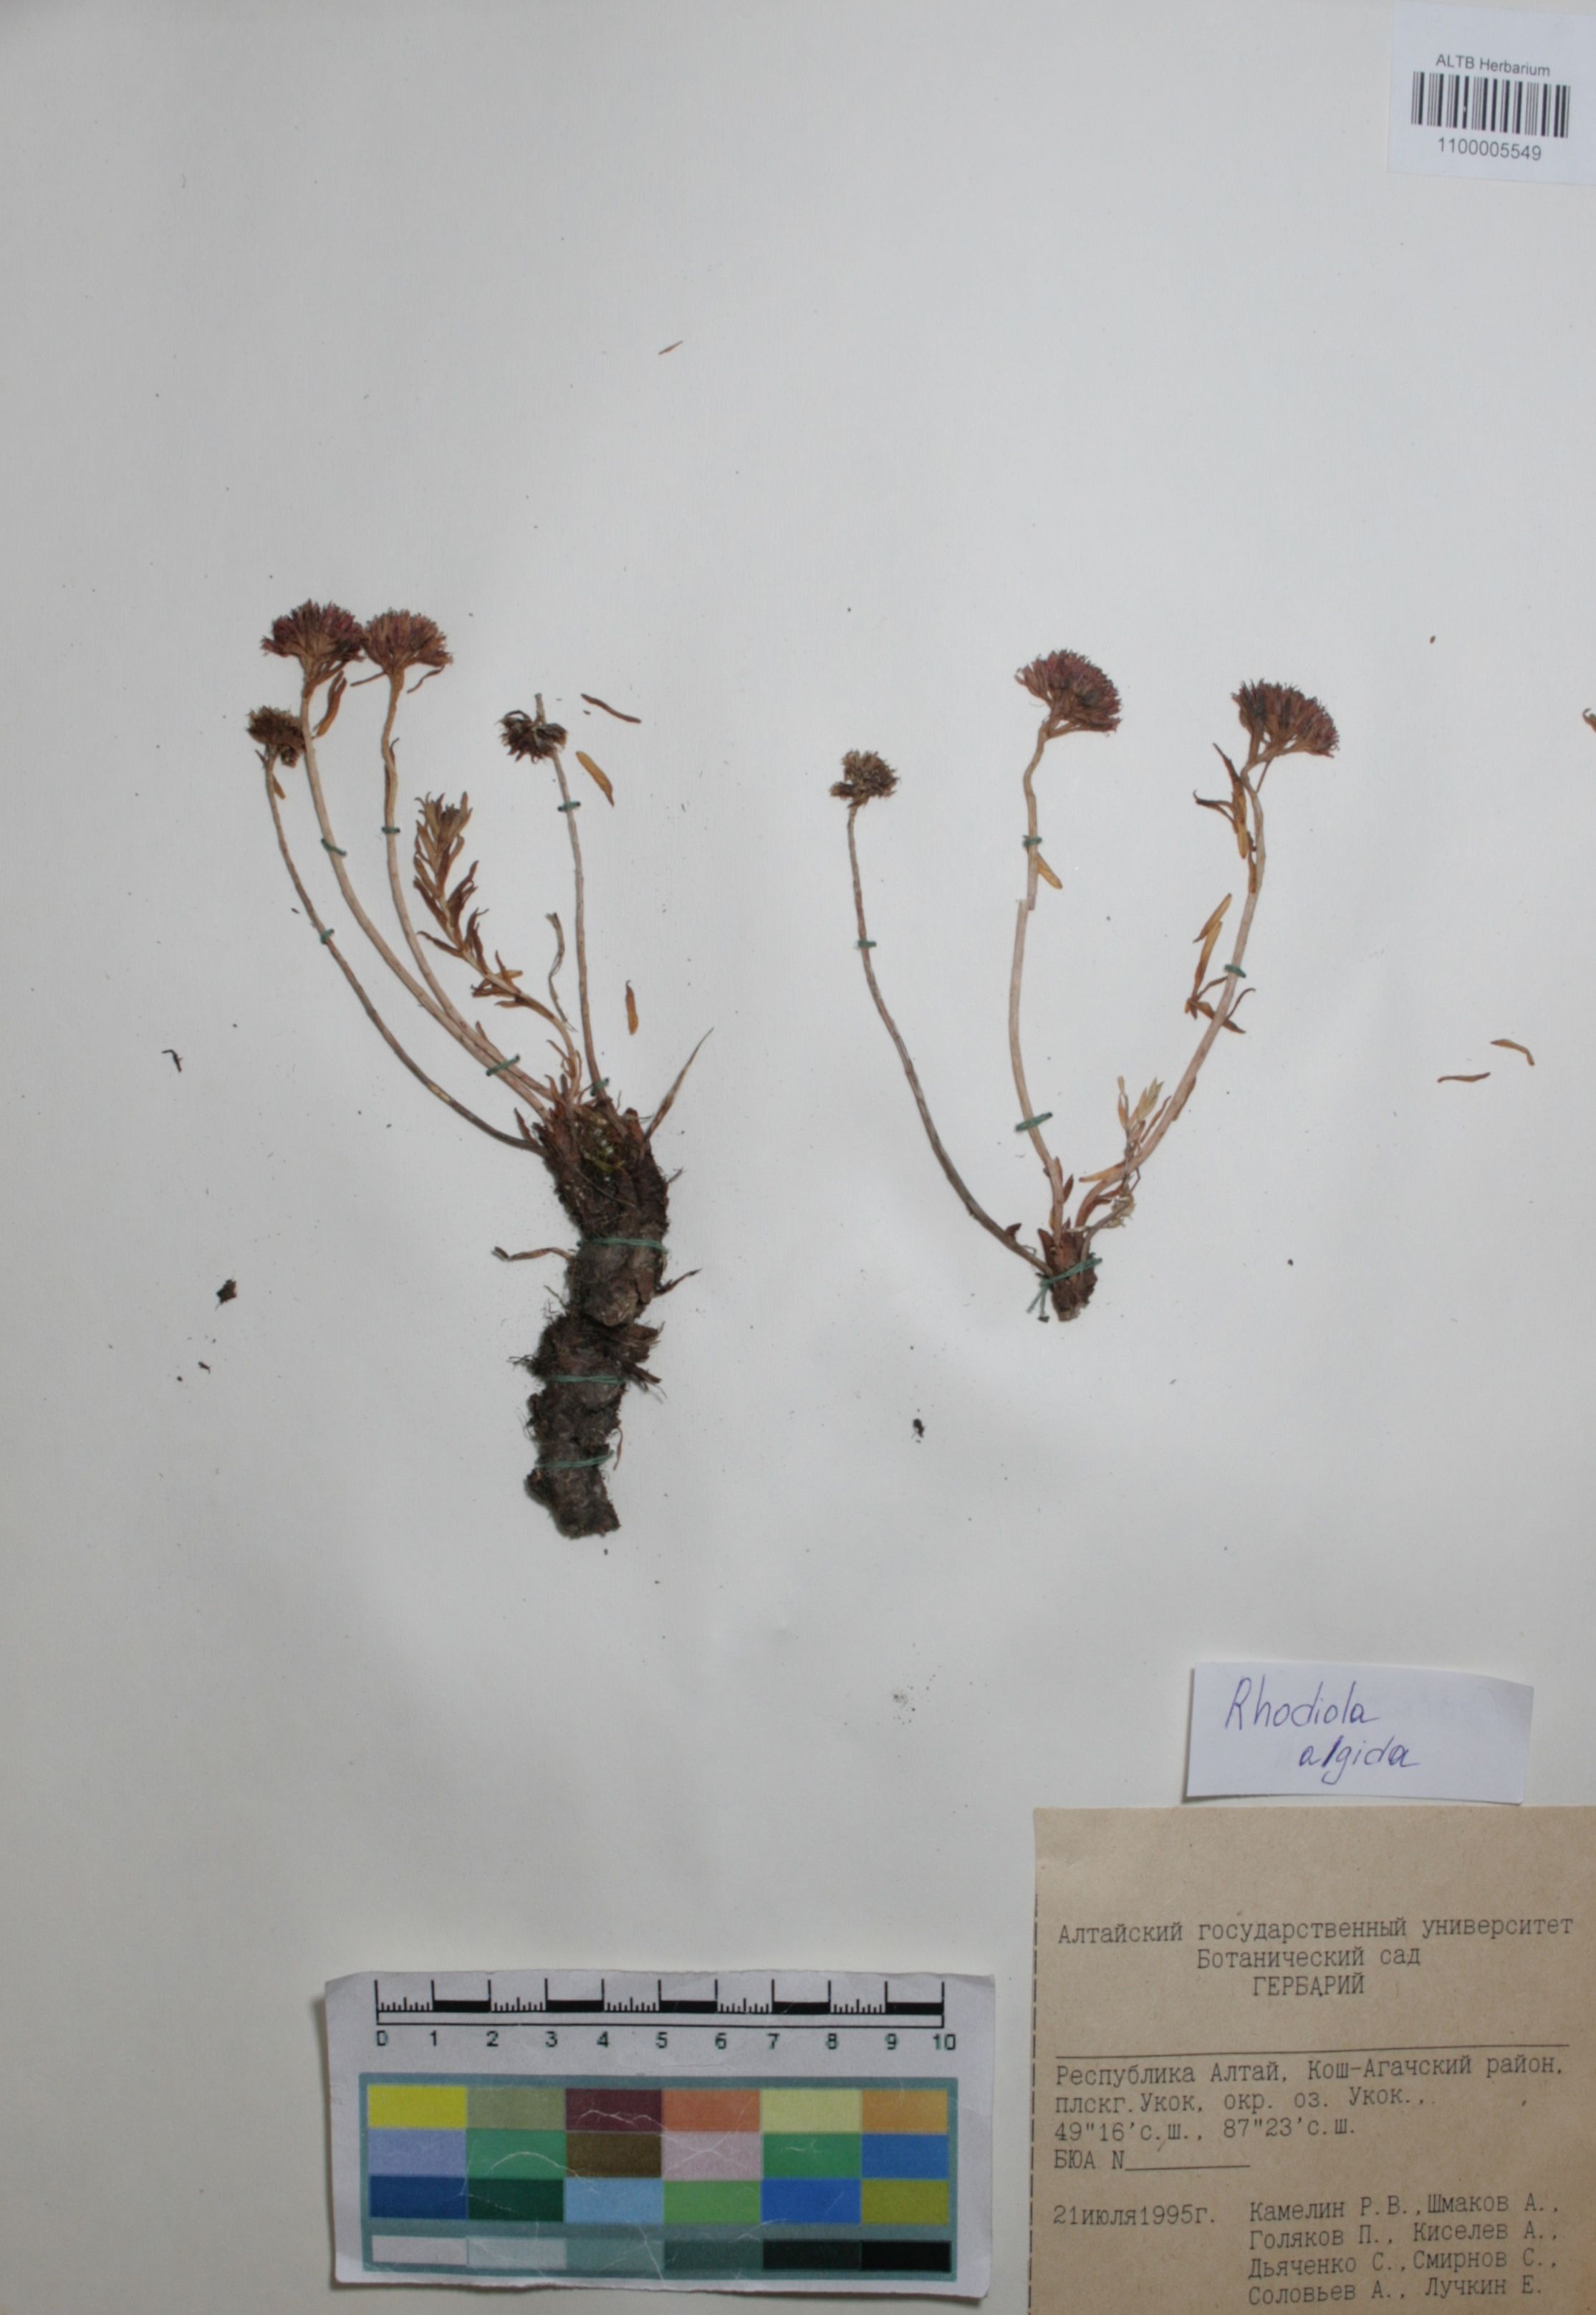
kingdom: Plantae
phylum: Tracheophyta
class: Magnoliopsida
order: Saxifragales
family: Crassulaceae
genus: Rhodiola
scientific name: Rhodiola algida
